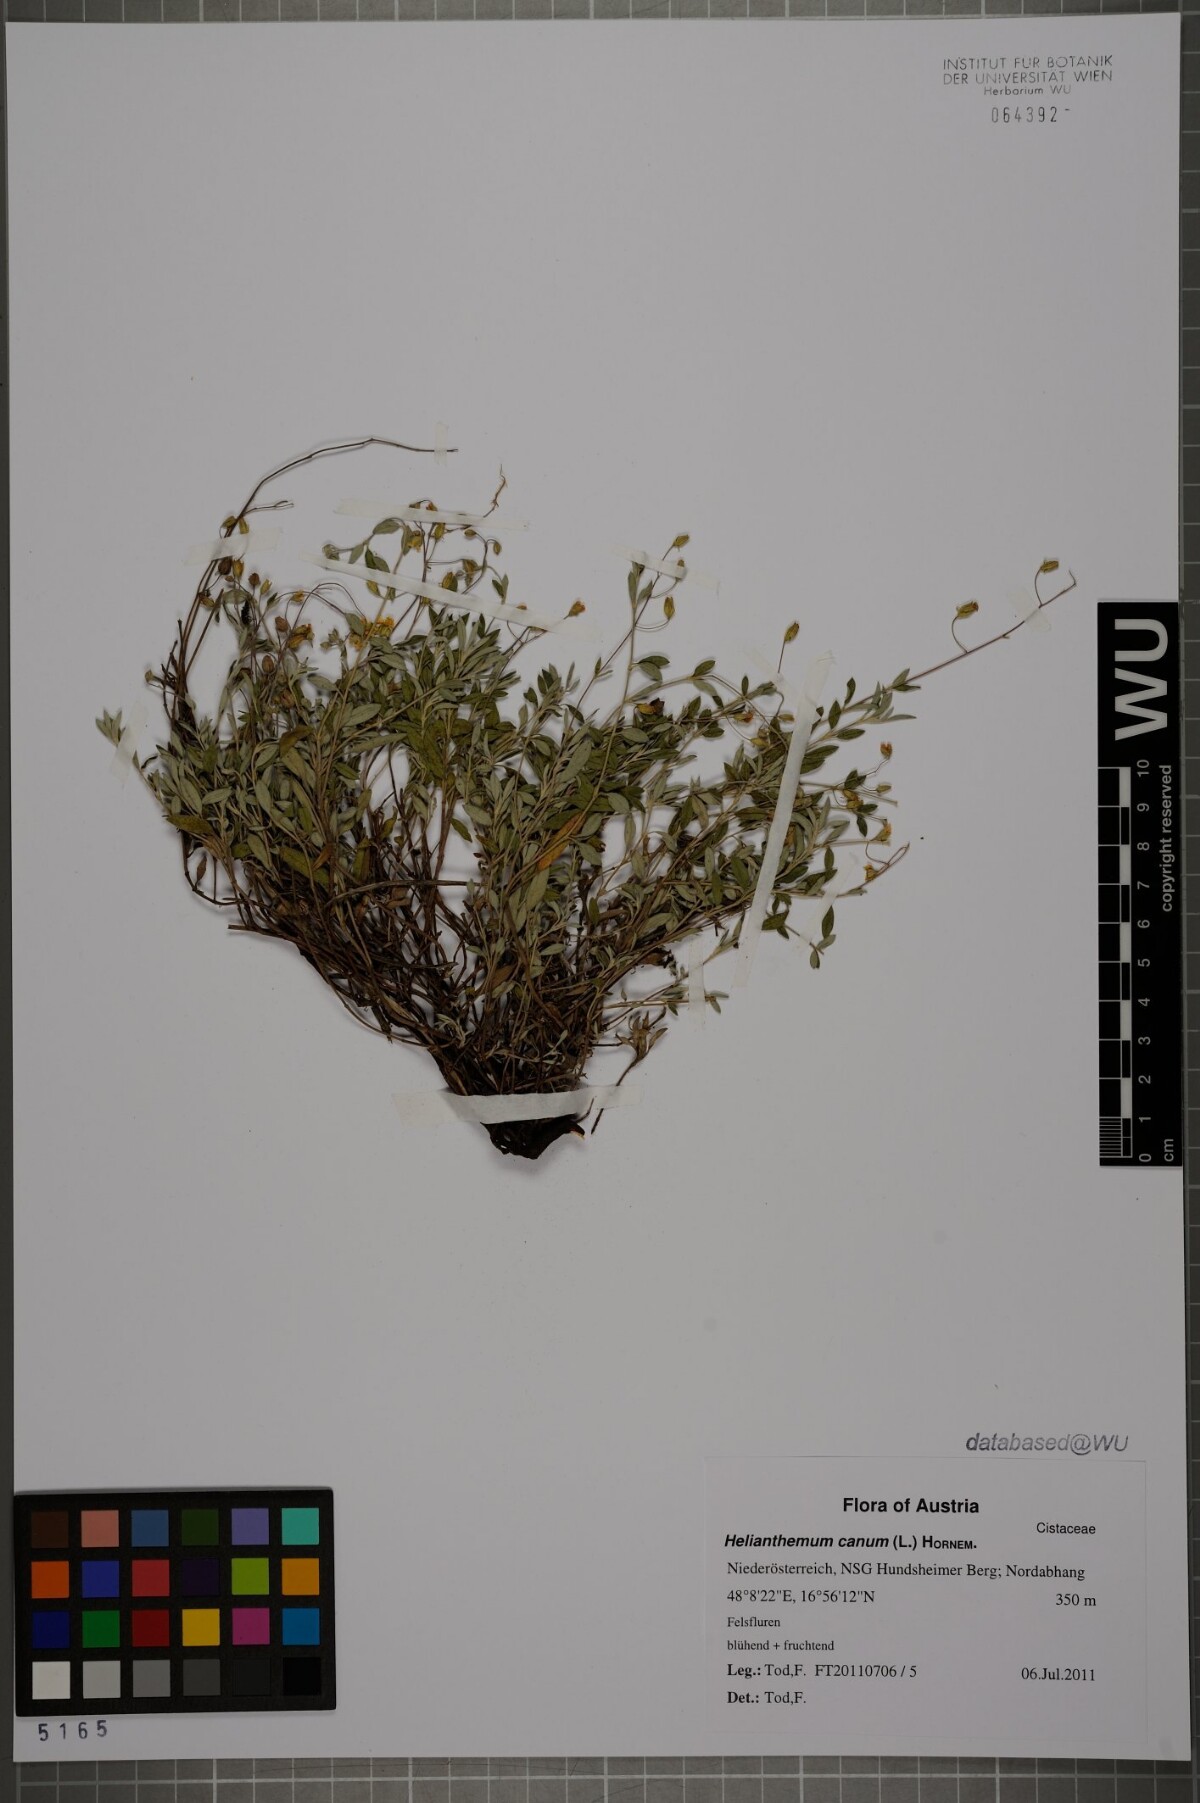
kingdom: Plantae
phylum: Tracheophyta
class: Magnoliopsida
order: Malvales
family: Cistaceae
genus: Helianthemum
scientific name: Helianthemum canum
